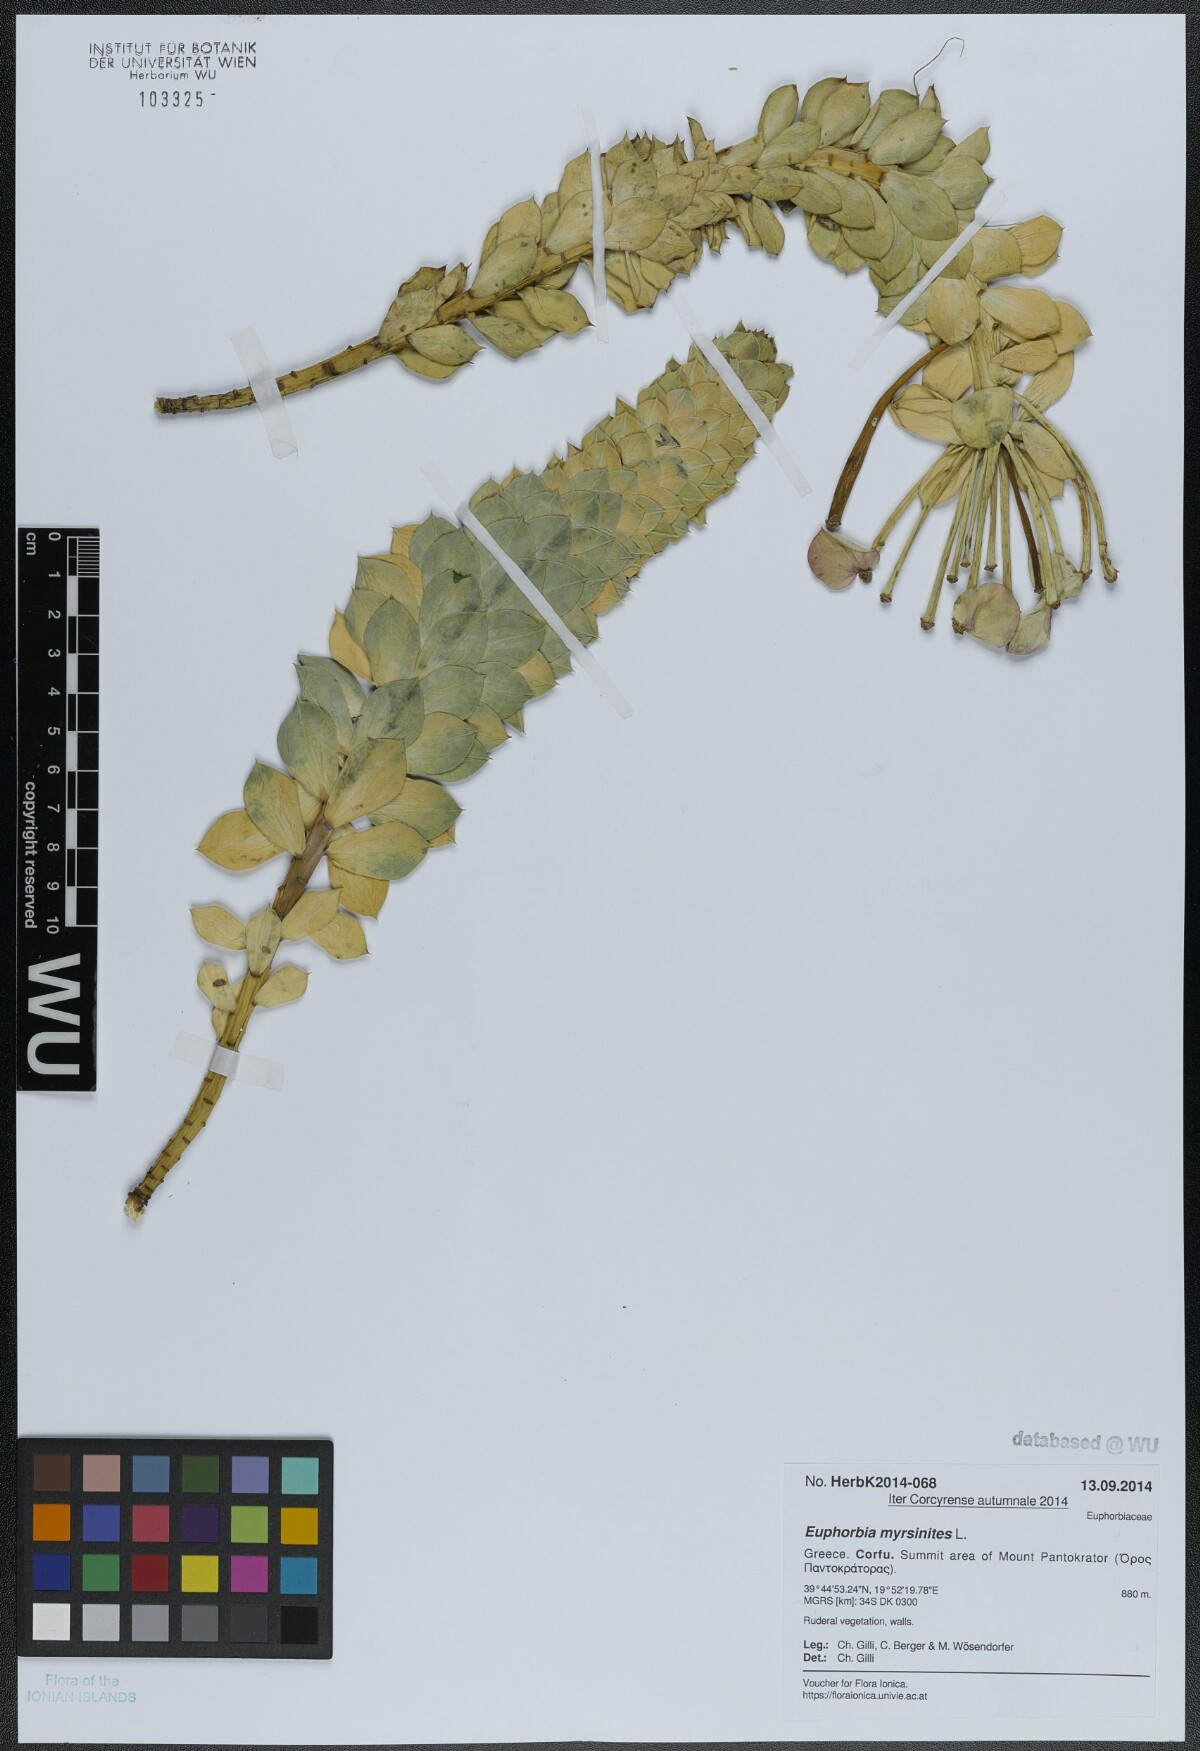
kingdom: Plantae
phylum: Tracheophyta
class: Magnoliopsida
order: Malpighiales
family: Euphorbiaceae
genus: Euphorbia
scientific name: Euphorbia myrsinites
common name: Myrtle spurge
